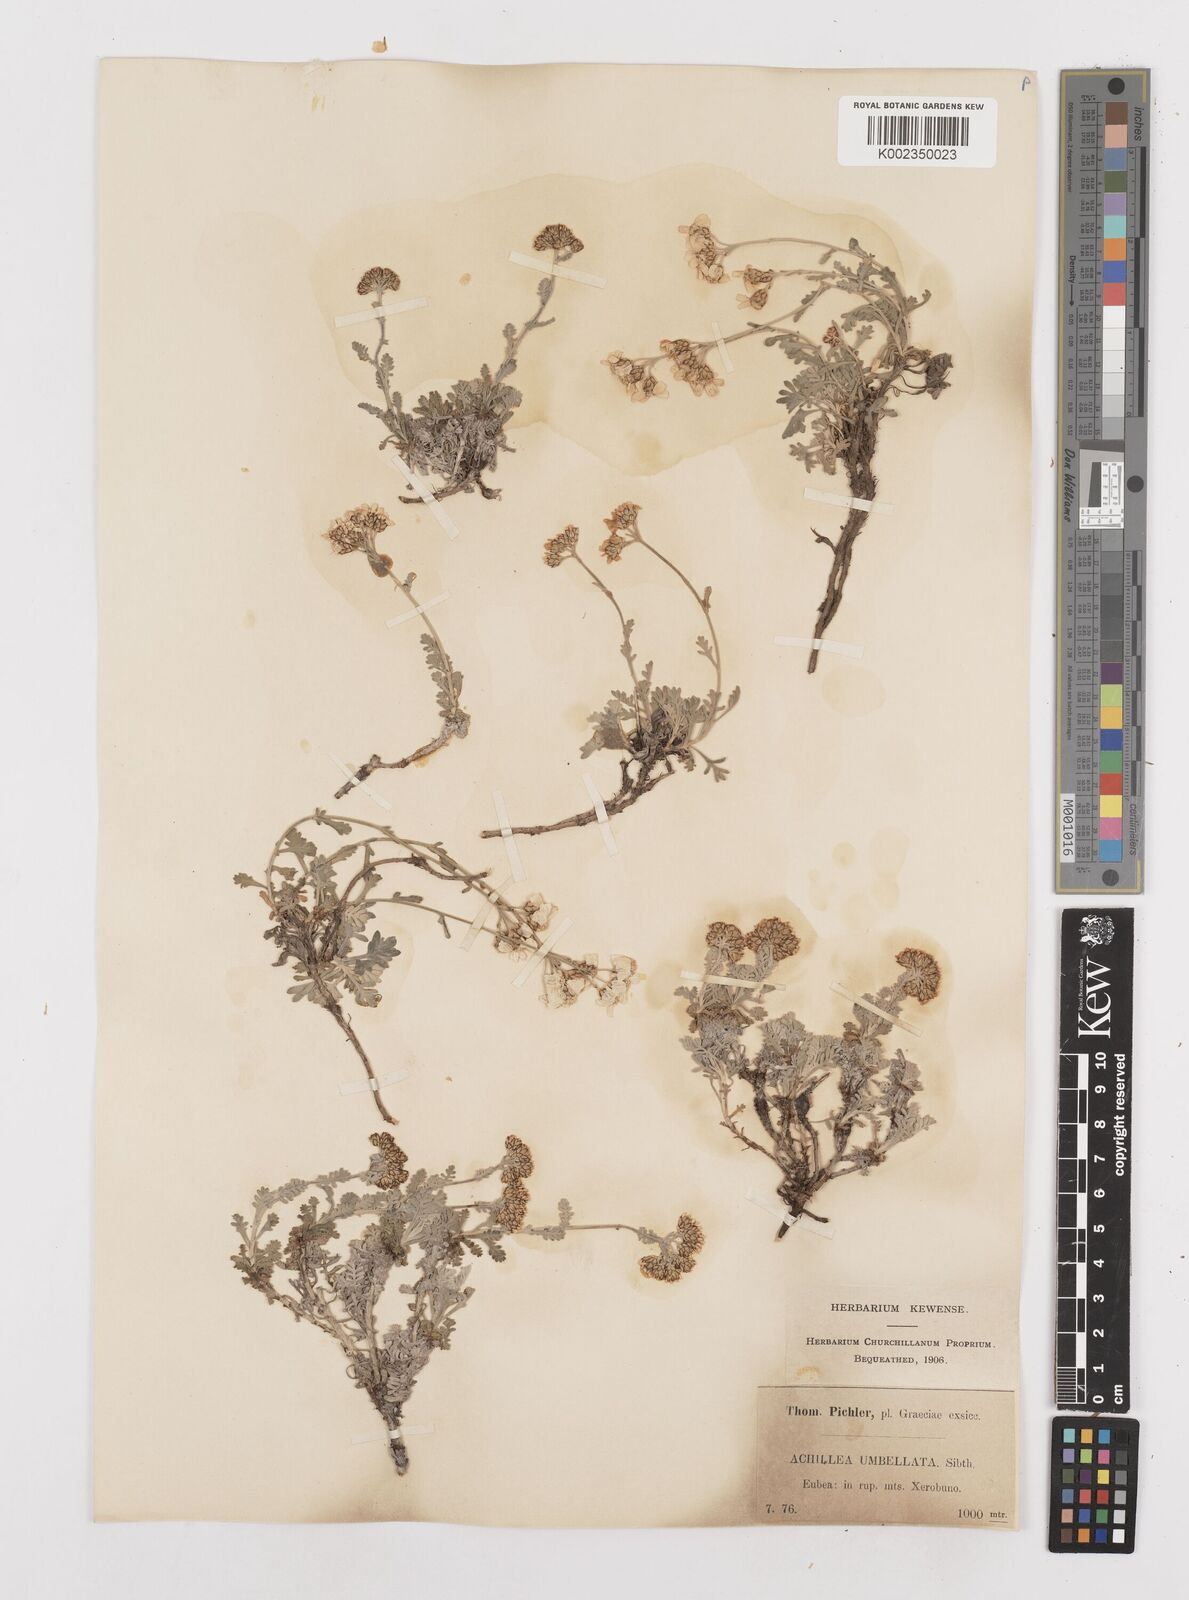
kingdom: Plantae
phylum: Tracheophyta
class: Magnoliopsida
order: Asterales
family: Asteraceae
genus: Achillea
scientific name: Achillea umbellata
